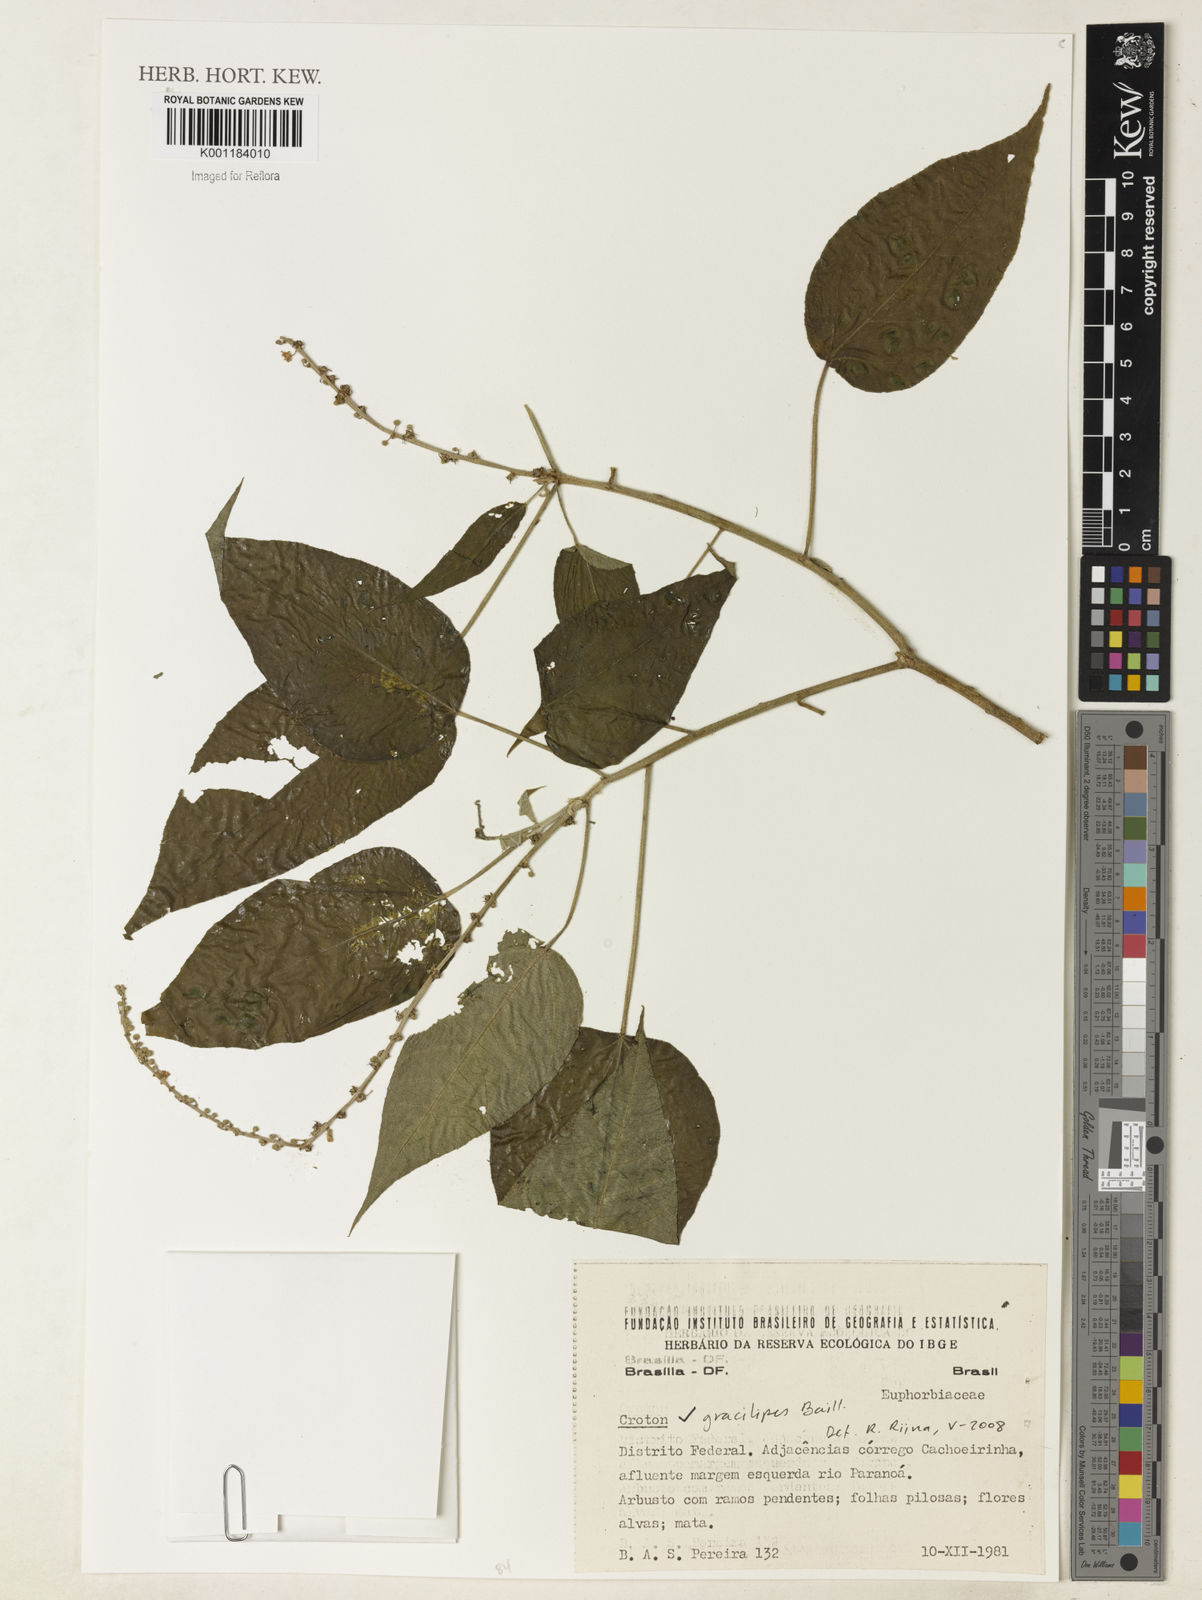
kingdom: Plantae
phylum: Tracheophyta
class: Magnoliopsida
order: Malpighiales
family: Euphorbiaceae
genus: Croton
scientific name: Croton gracilipes
